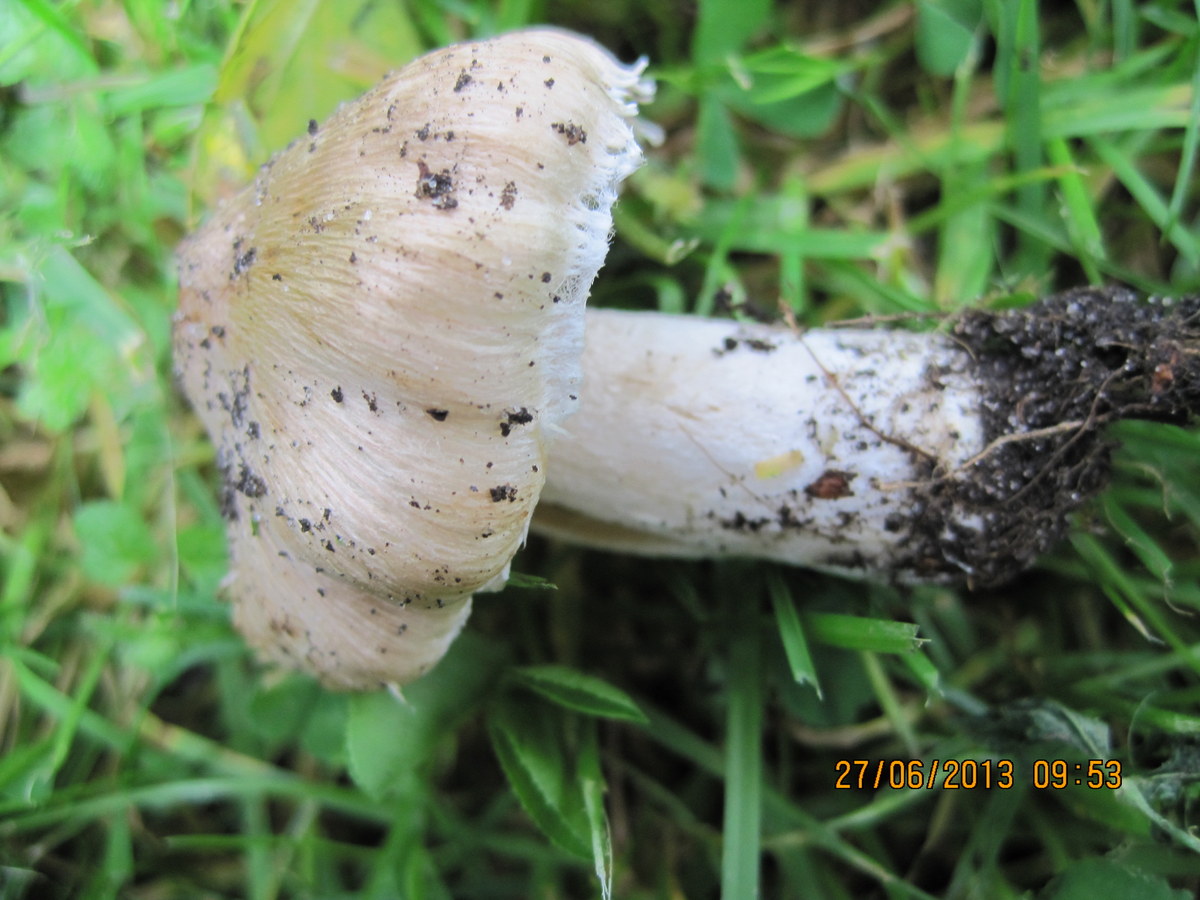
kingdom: Fungi
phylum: Basidiomycota
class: Agaricomycetes
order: Agaricales
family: Inocybaceae
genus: Inosperma
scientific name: Inosperma erubescens
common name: giftig trævlhat
